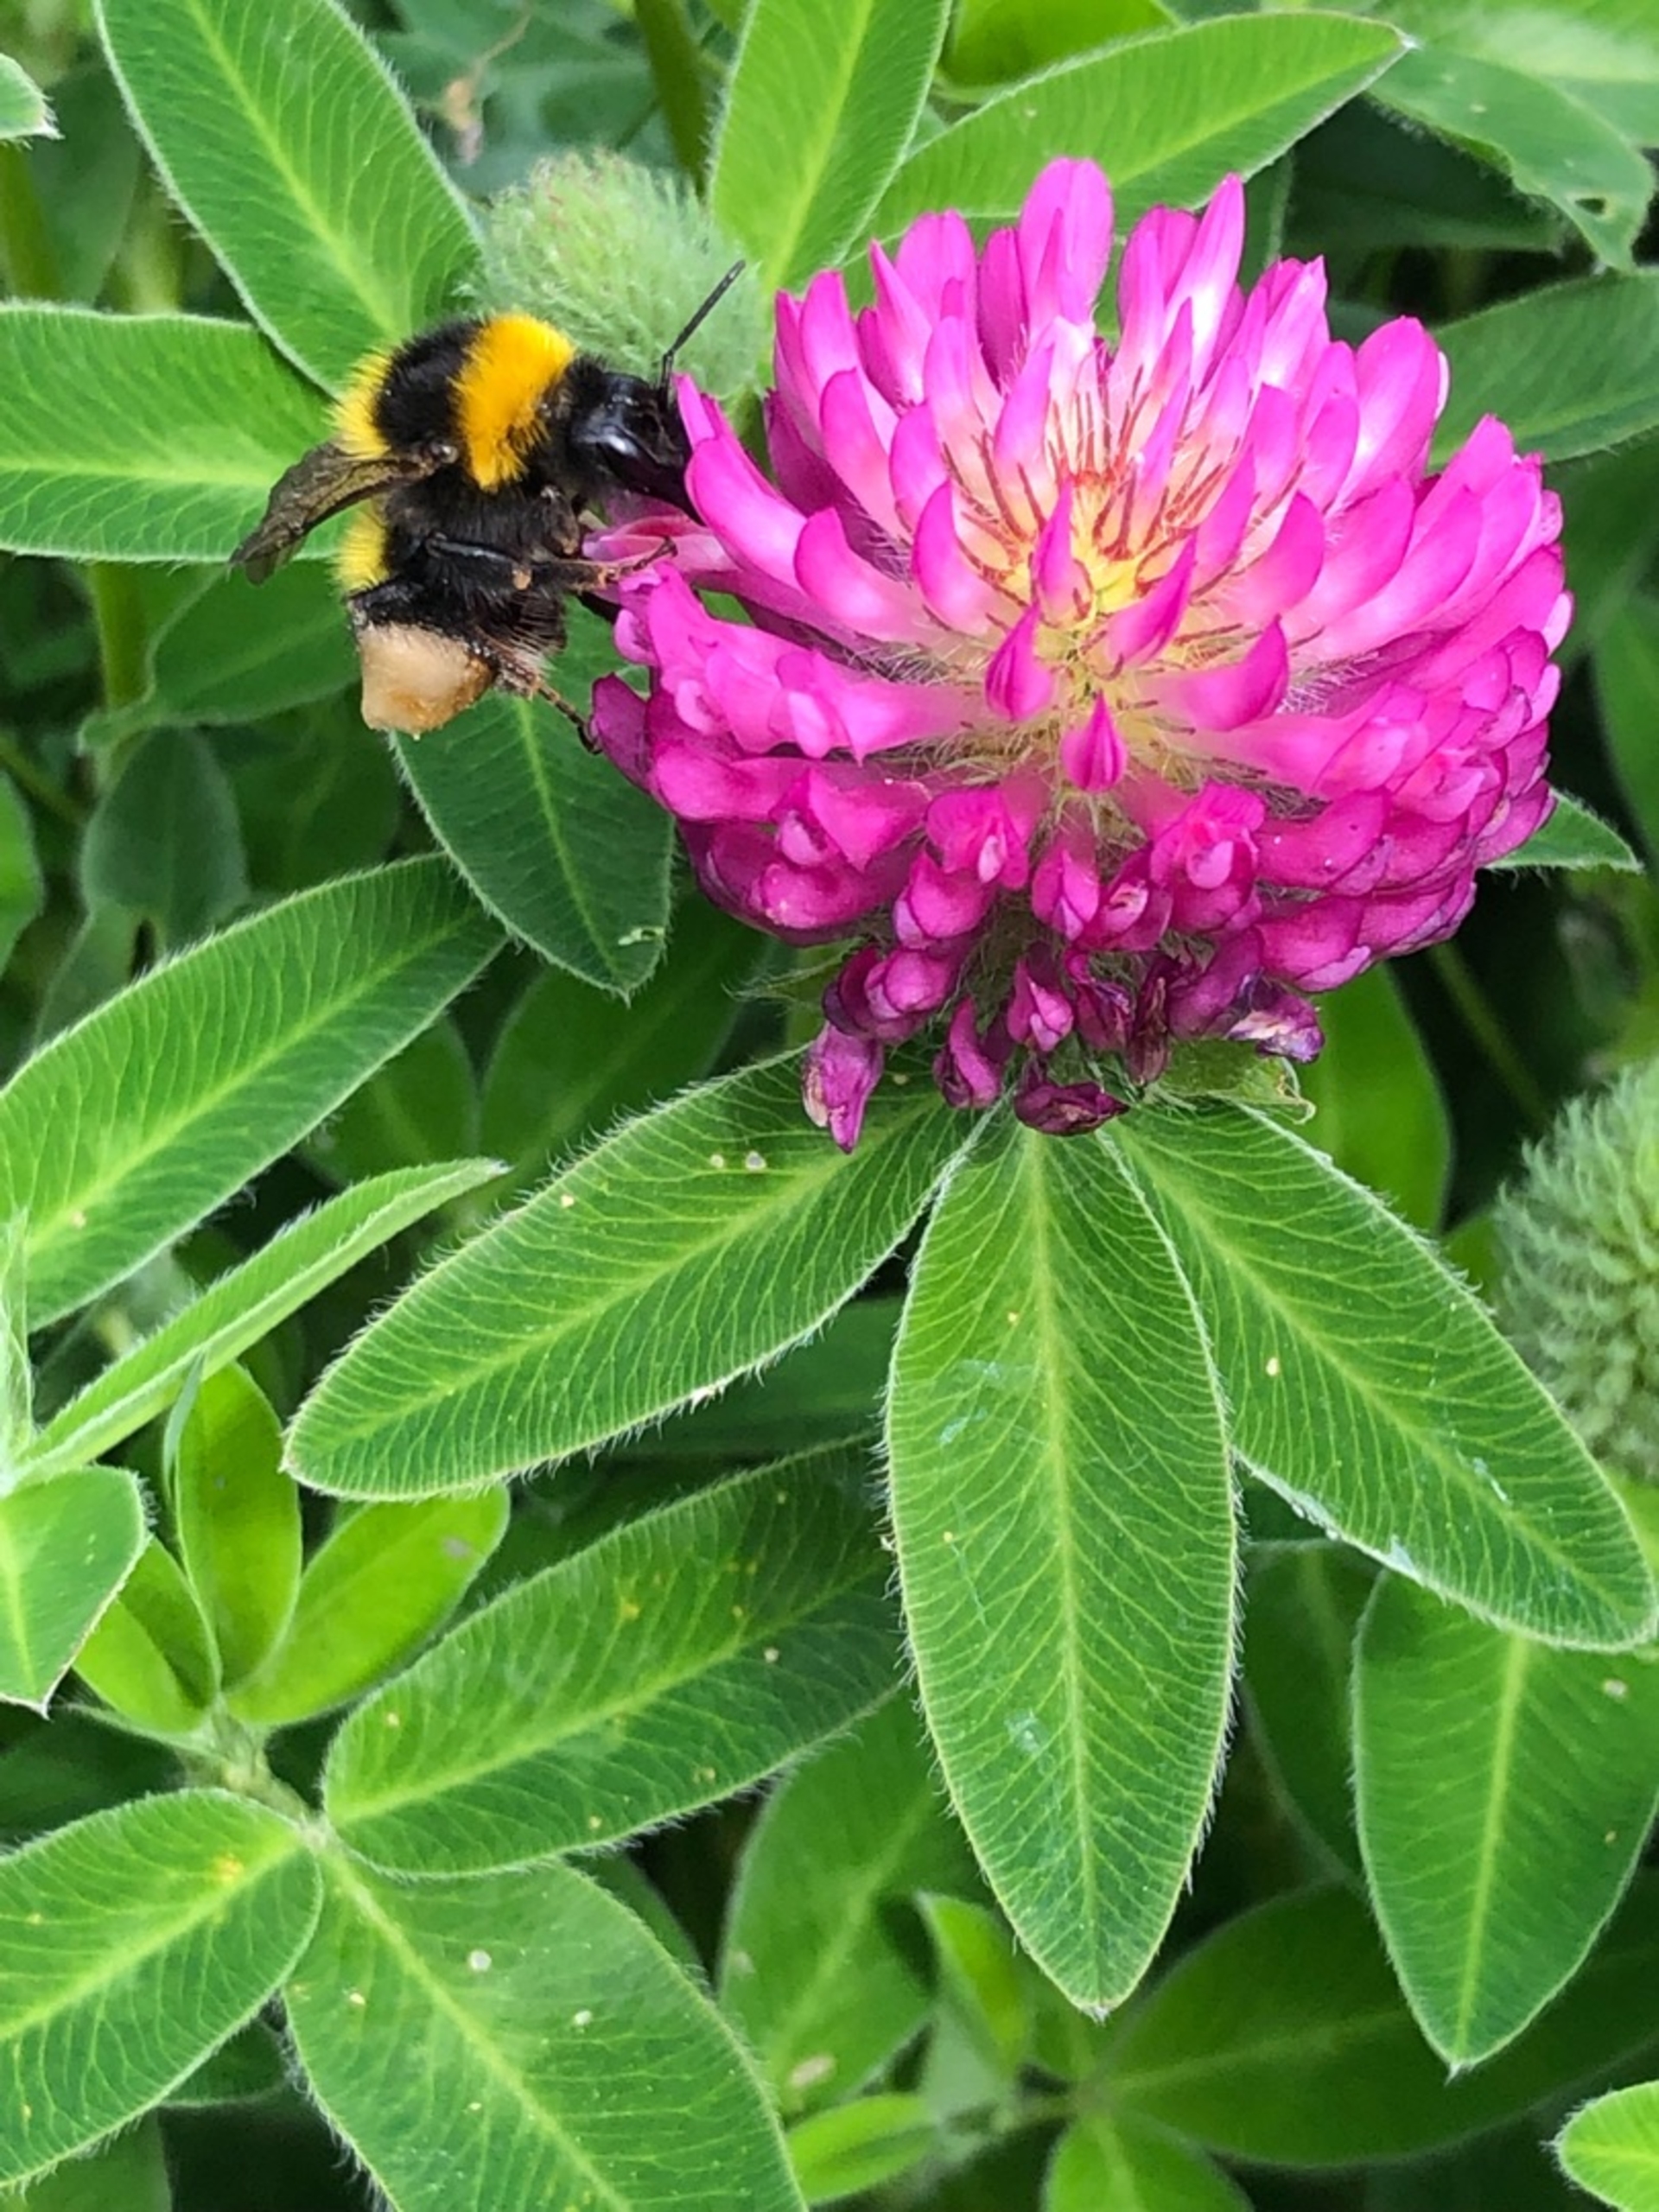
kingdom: Plantae
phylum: Tracheophyta
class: Magnoliopsida
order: Fabales
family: Fabaceae
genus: Trifolium
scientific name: Trifolium medium
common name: Bugtet kløver
